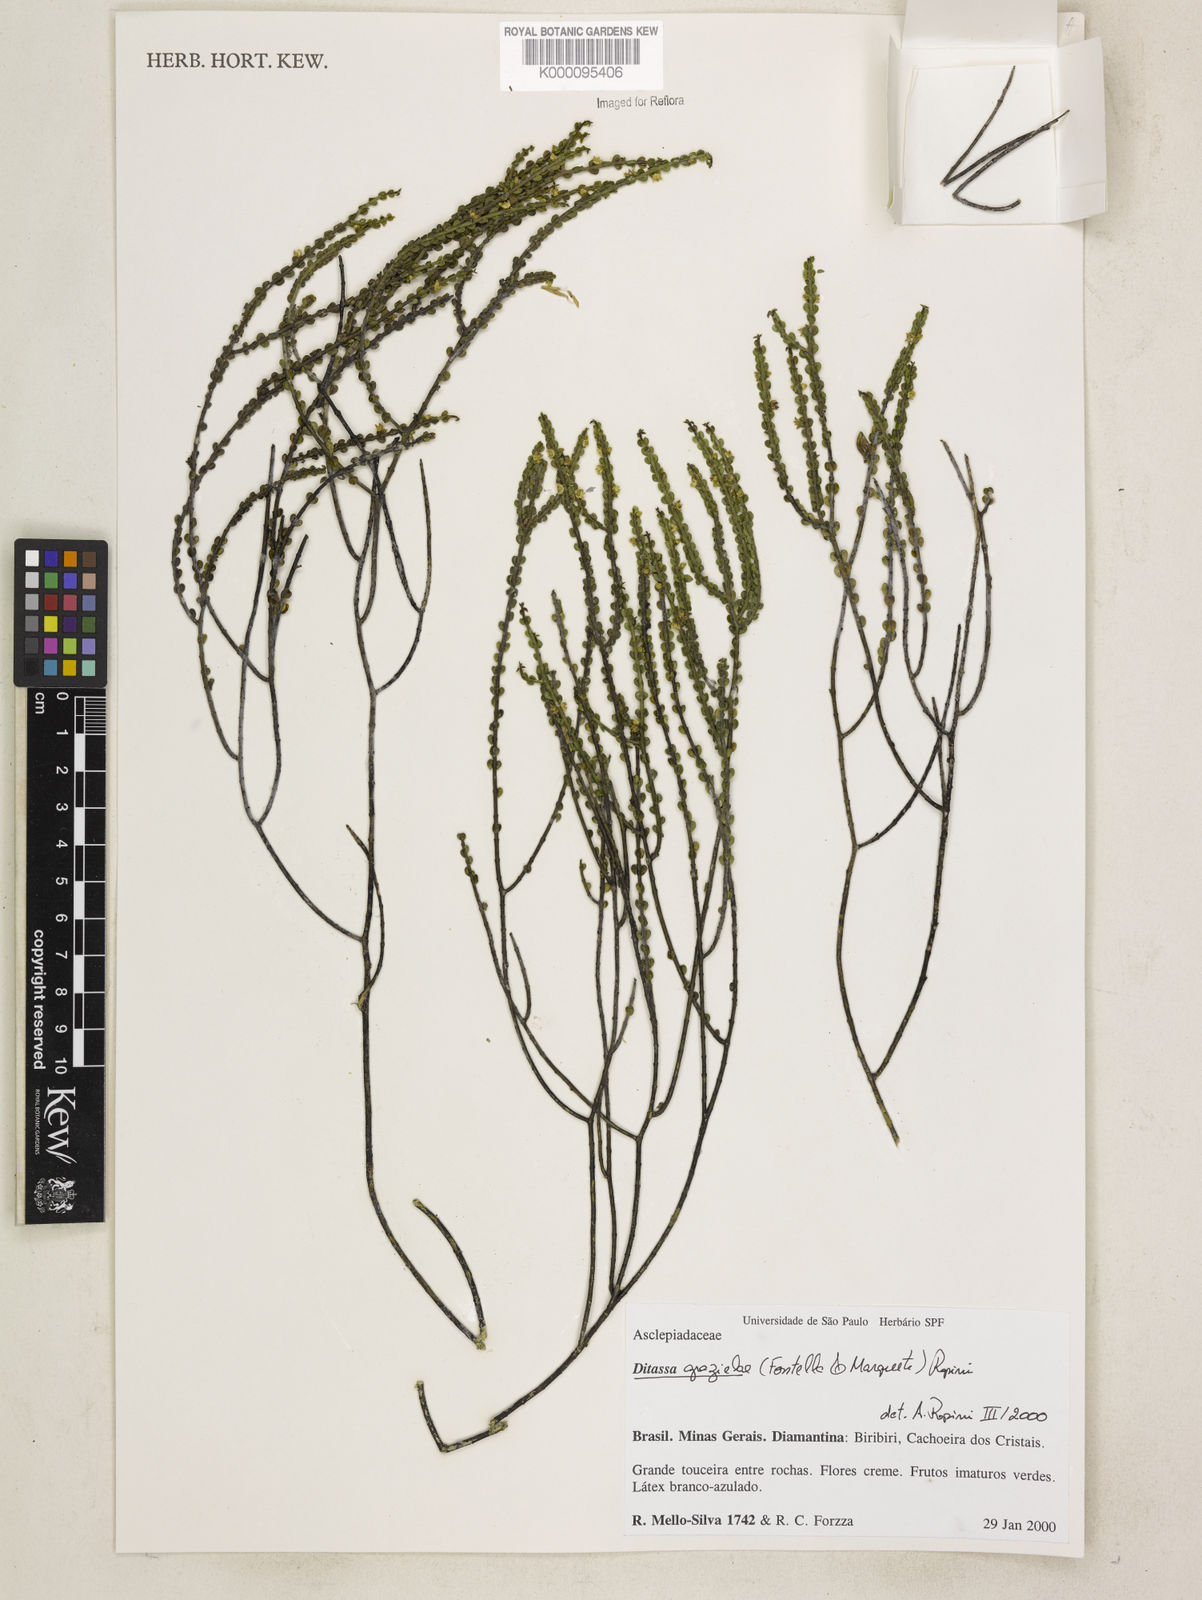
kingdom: Plantae
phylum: Tracheophyta
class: Magnoliopsida
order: Gentianales
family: Apocynaceae
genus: Minaria
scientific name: Minaria grazielae
